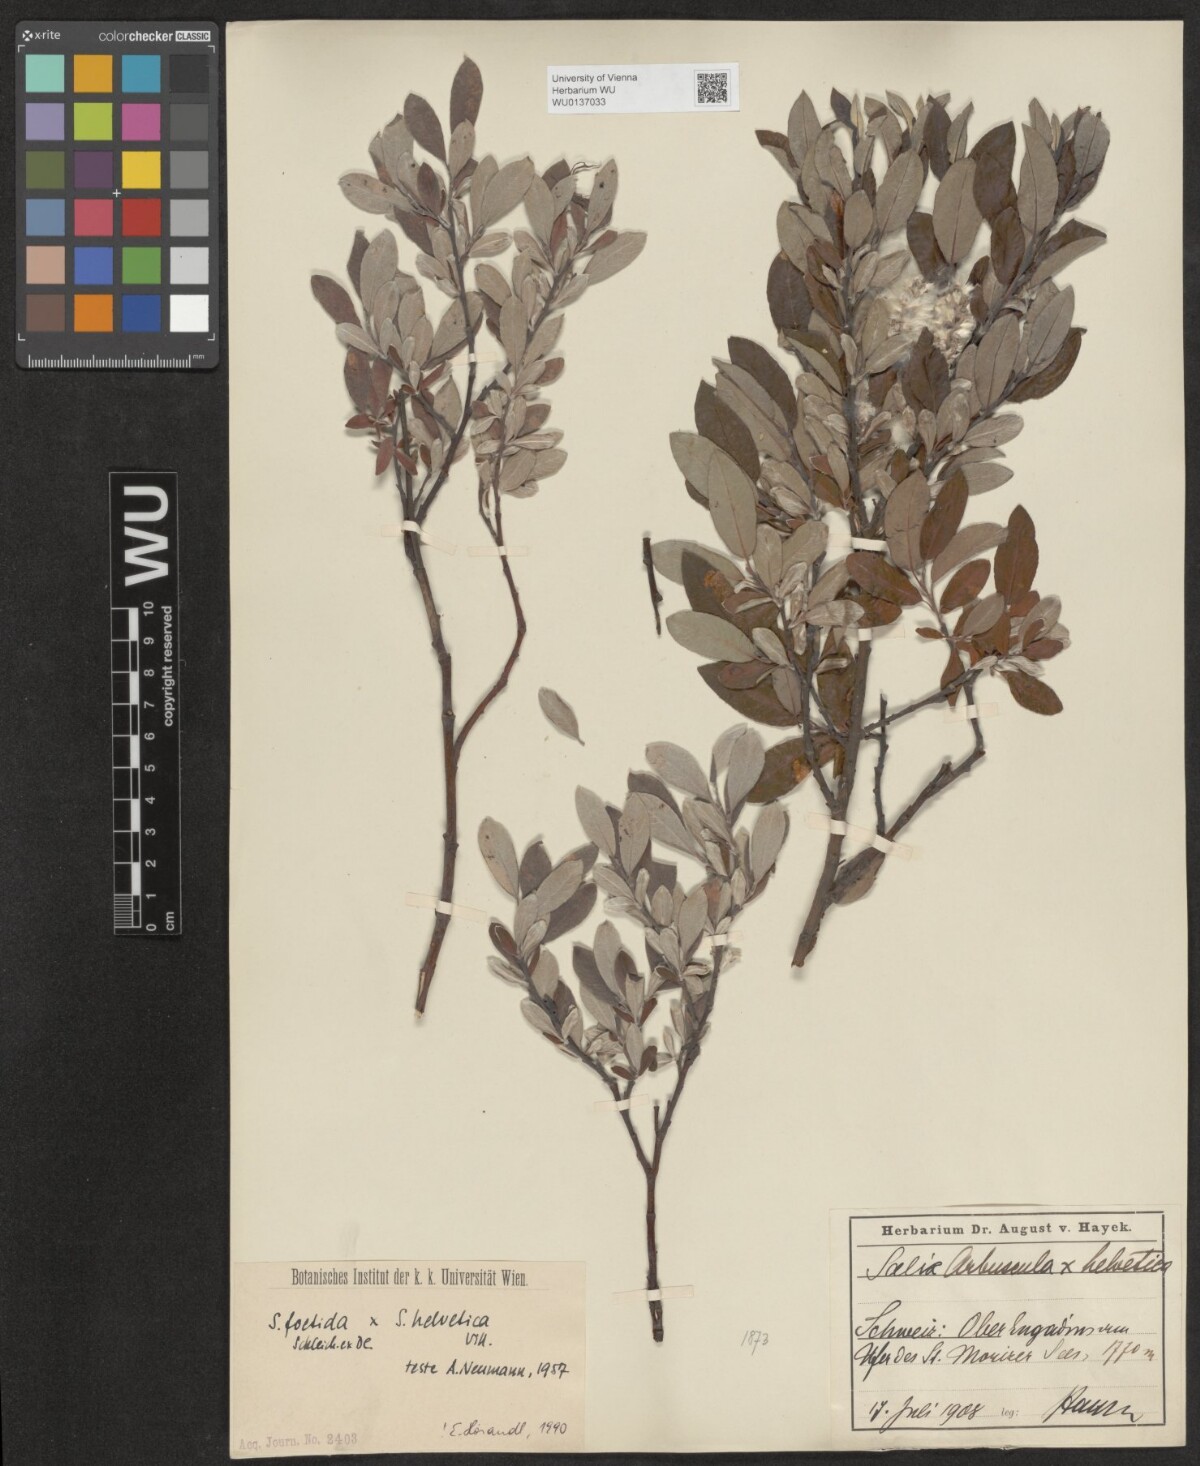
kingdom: Plantae
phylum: Tracheophyta
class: Magnoliopsida
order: Malpighiales
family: Salicaceae
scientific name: Salicaceae
